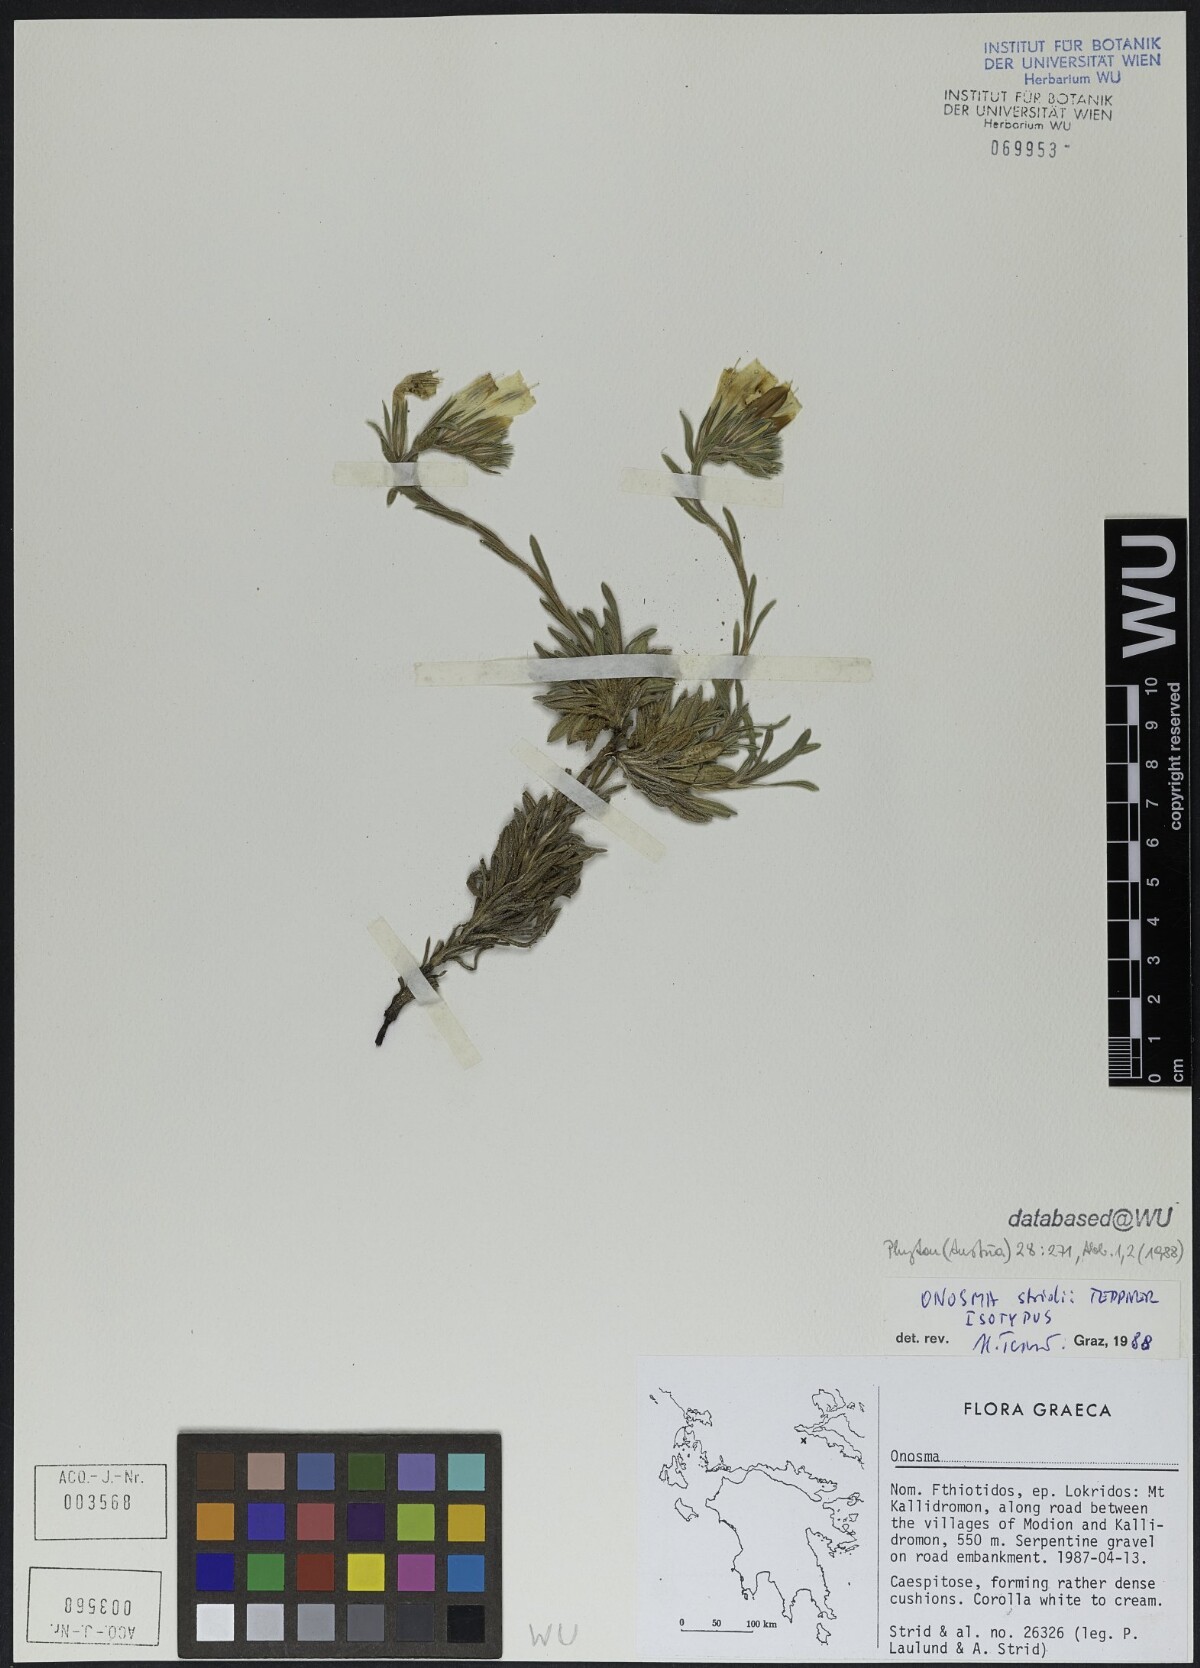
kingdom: Plantae
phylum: Tracheophyta
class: Magnoliopsida
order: Boraginales
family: Boraginaceae
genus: Onosma
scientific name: Onosma stridii
